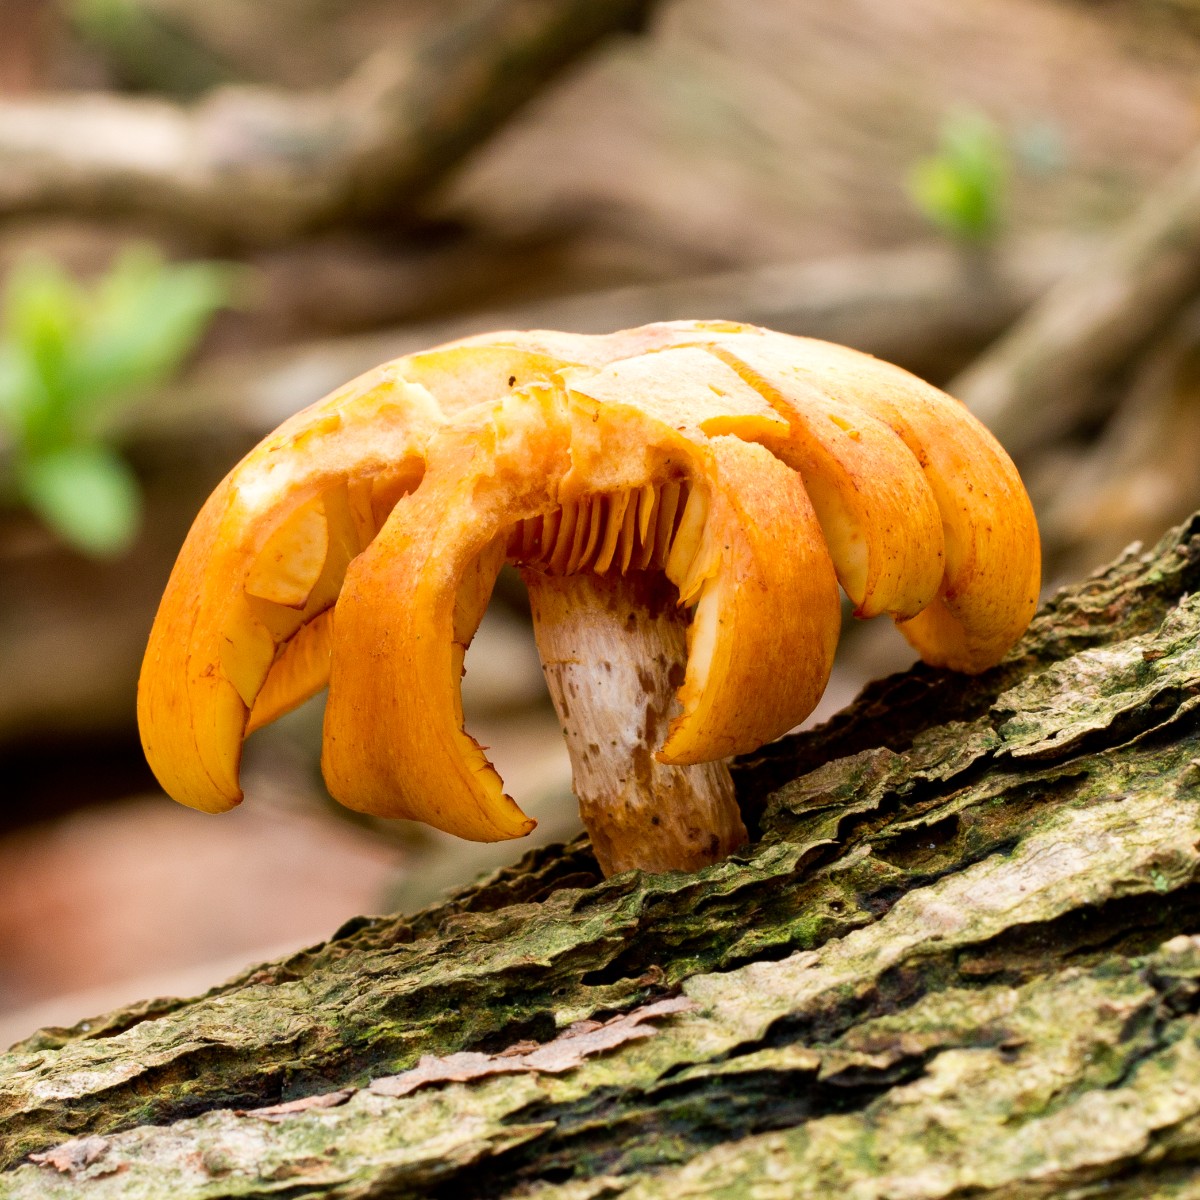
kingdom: Fungi
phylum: Basidiomycota
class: Agaricomycetes
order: Agaricales
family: Hymenogastraceae
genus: Gymnopilus
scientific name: Gymnopilus penetrans
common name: plettet flammehat
